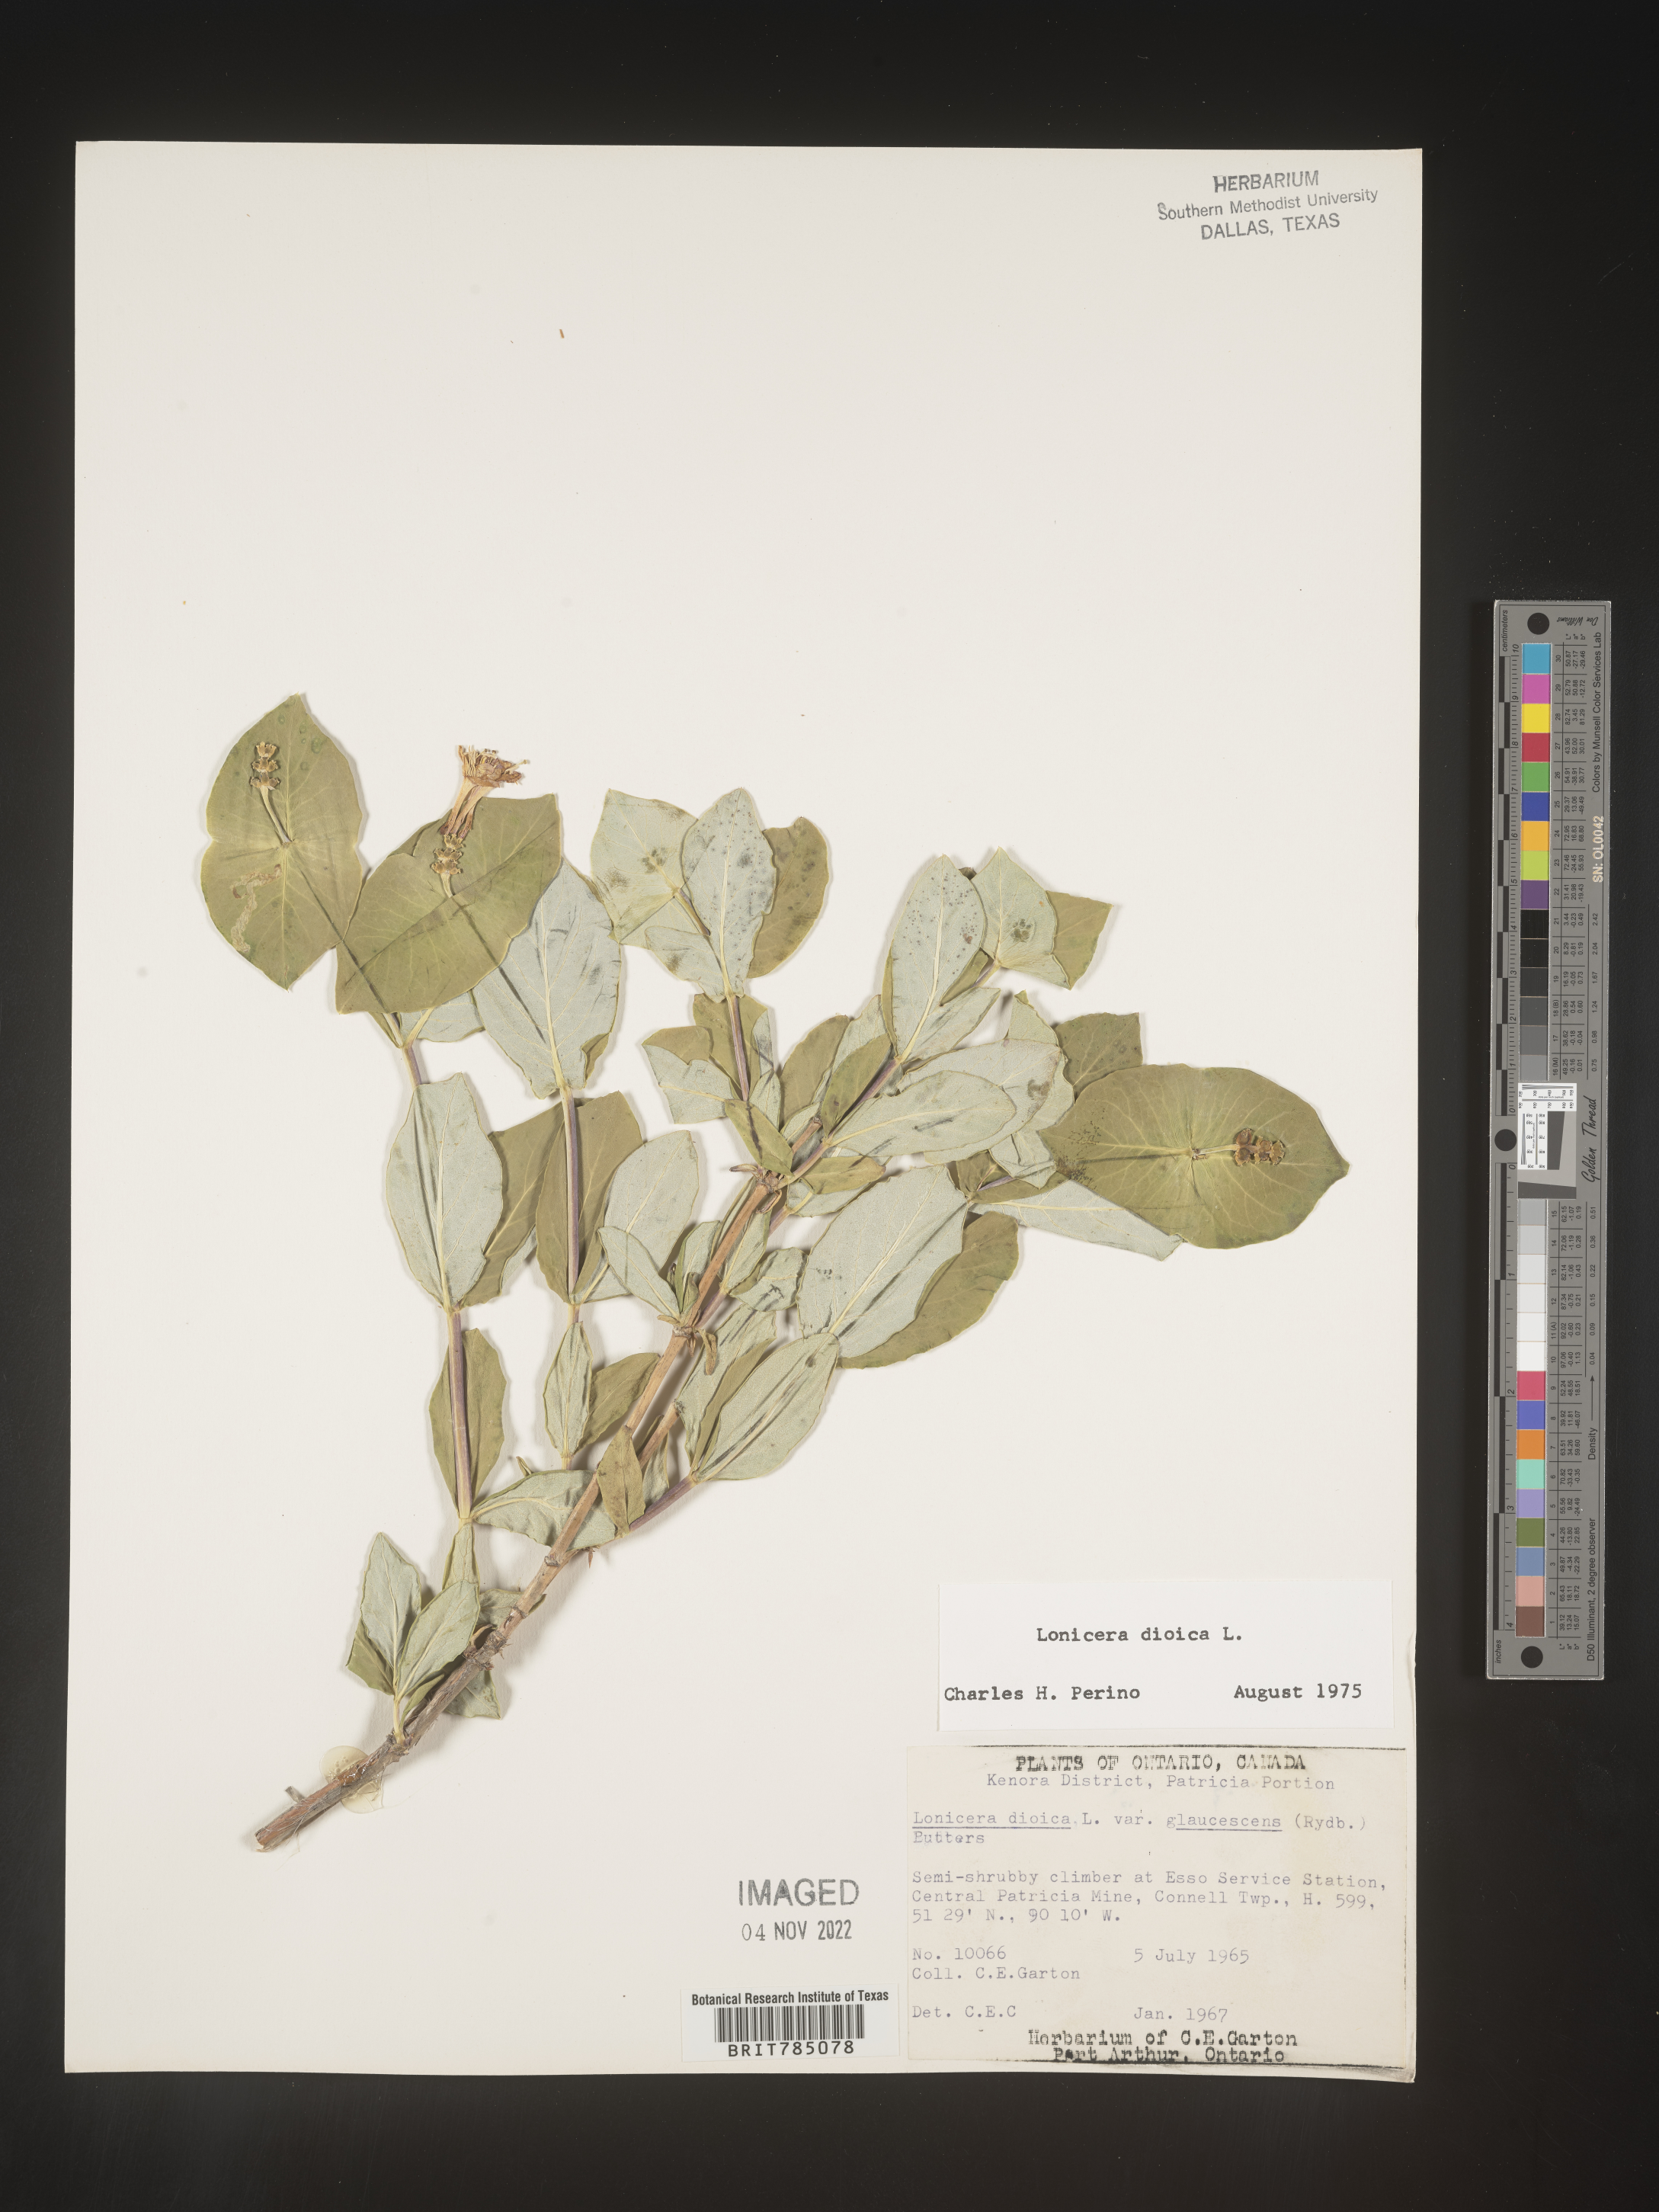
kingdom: Plantae
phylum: Tracheophyta
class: Magnoliopsida
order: Dipsacales
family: Caprifoliaceae
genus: Lonicera
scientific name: Lonicera dioica
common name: Limber honeysuckle
